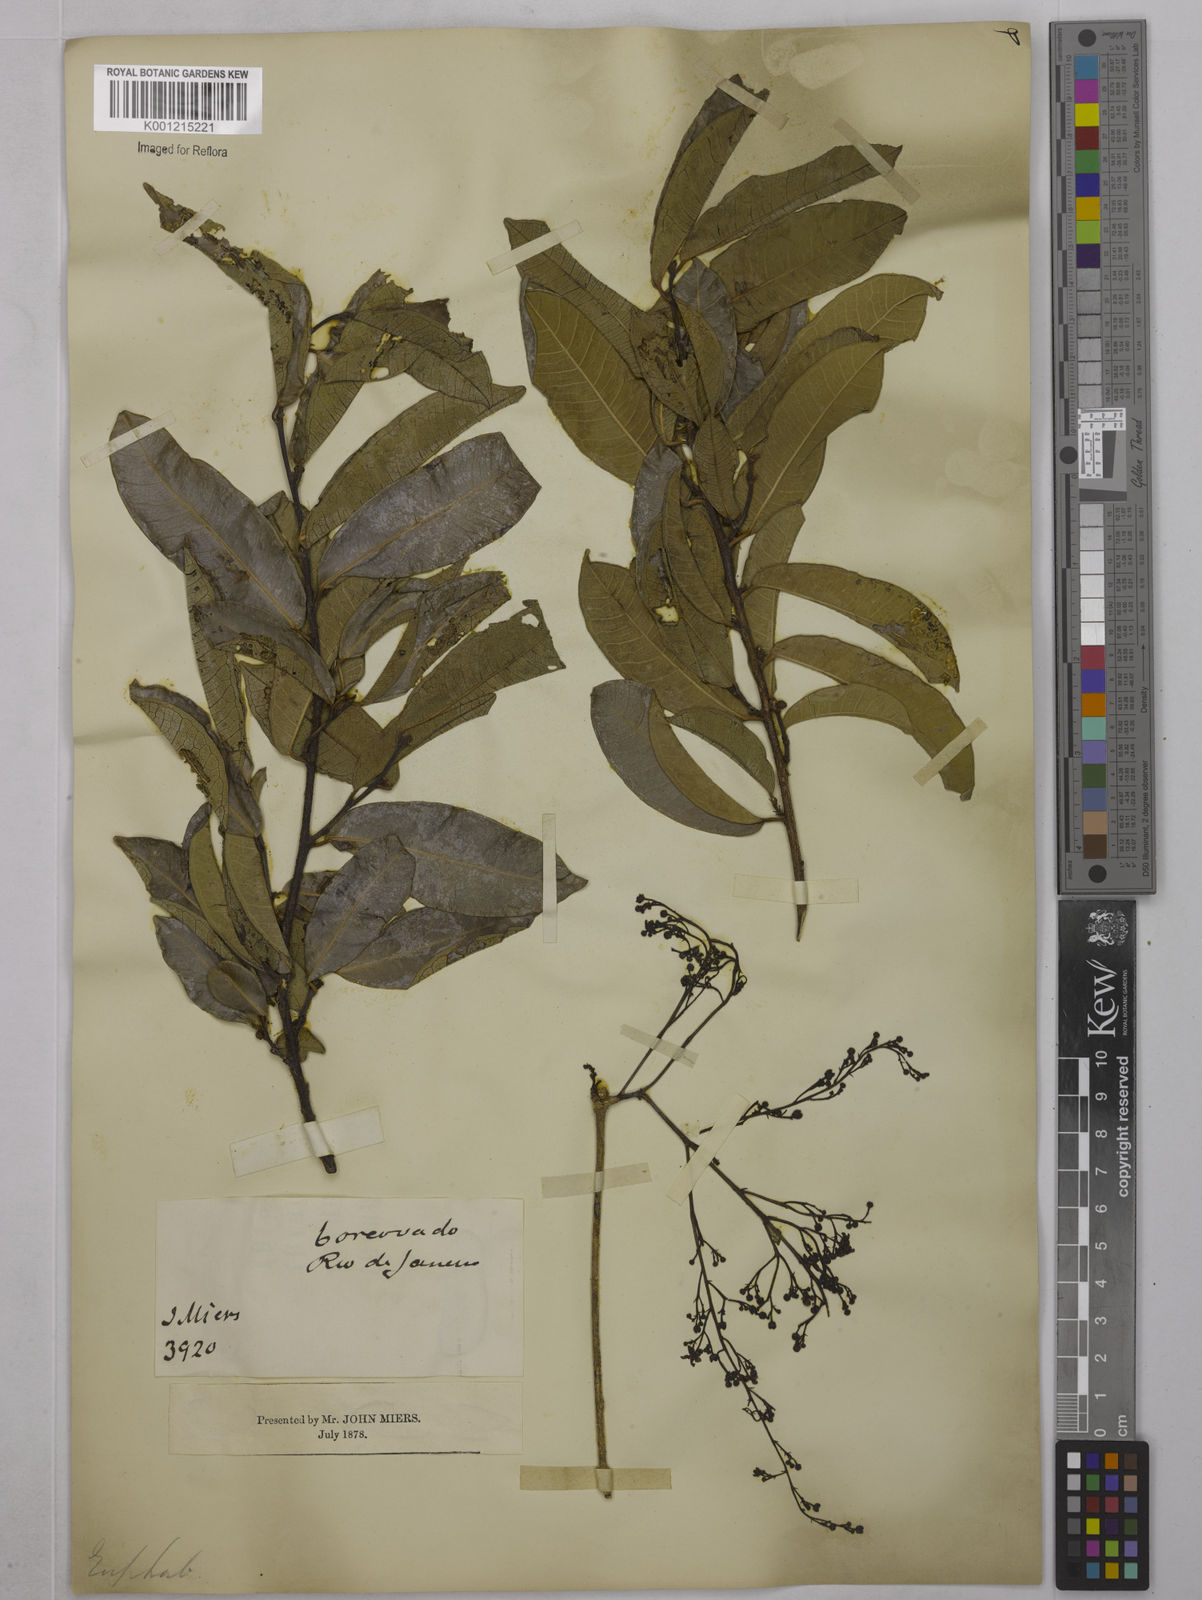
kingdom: Plantae
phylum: Tracheophyta
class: Magnoliopsida
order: Malpighiales
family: Euphorbiaceae
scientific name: Euphorbiaceae
